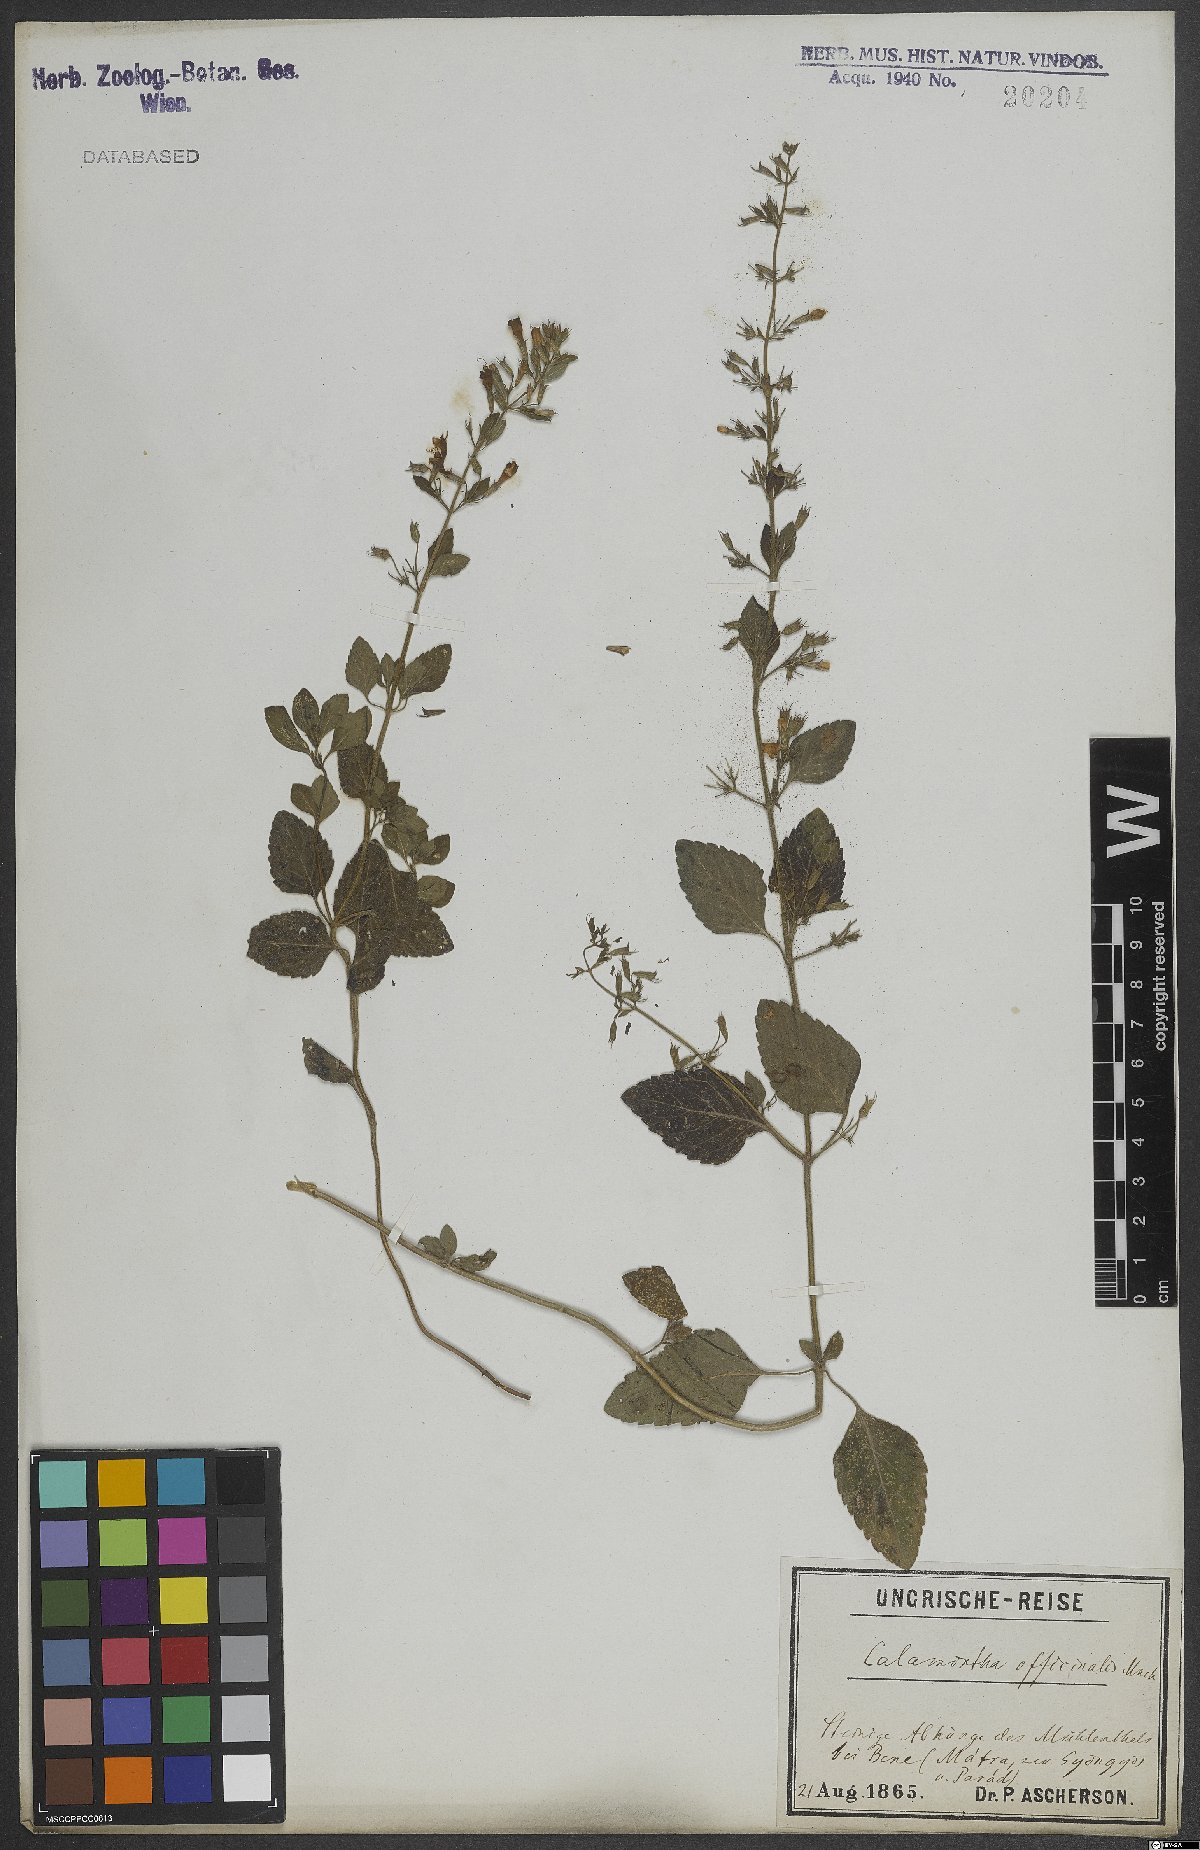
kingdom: Plantae
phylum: Tracheophyta
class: Magnoliopsida
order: Lamiales
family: Lamiaceae
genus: Clinopodium
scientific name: Clinopodium nepeta
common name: Lesser calamint
